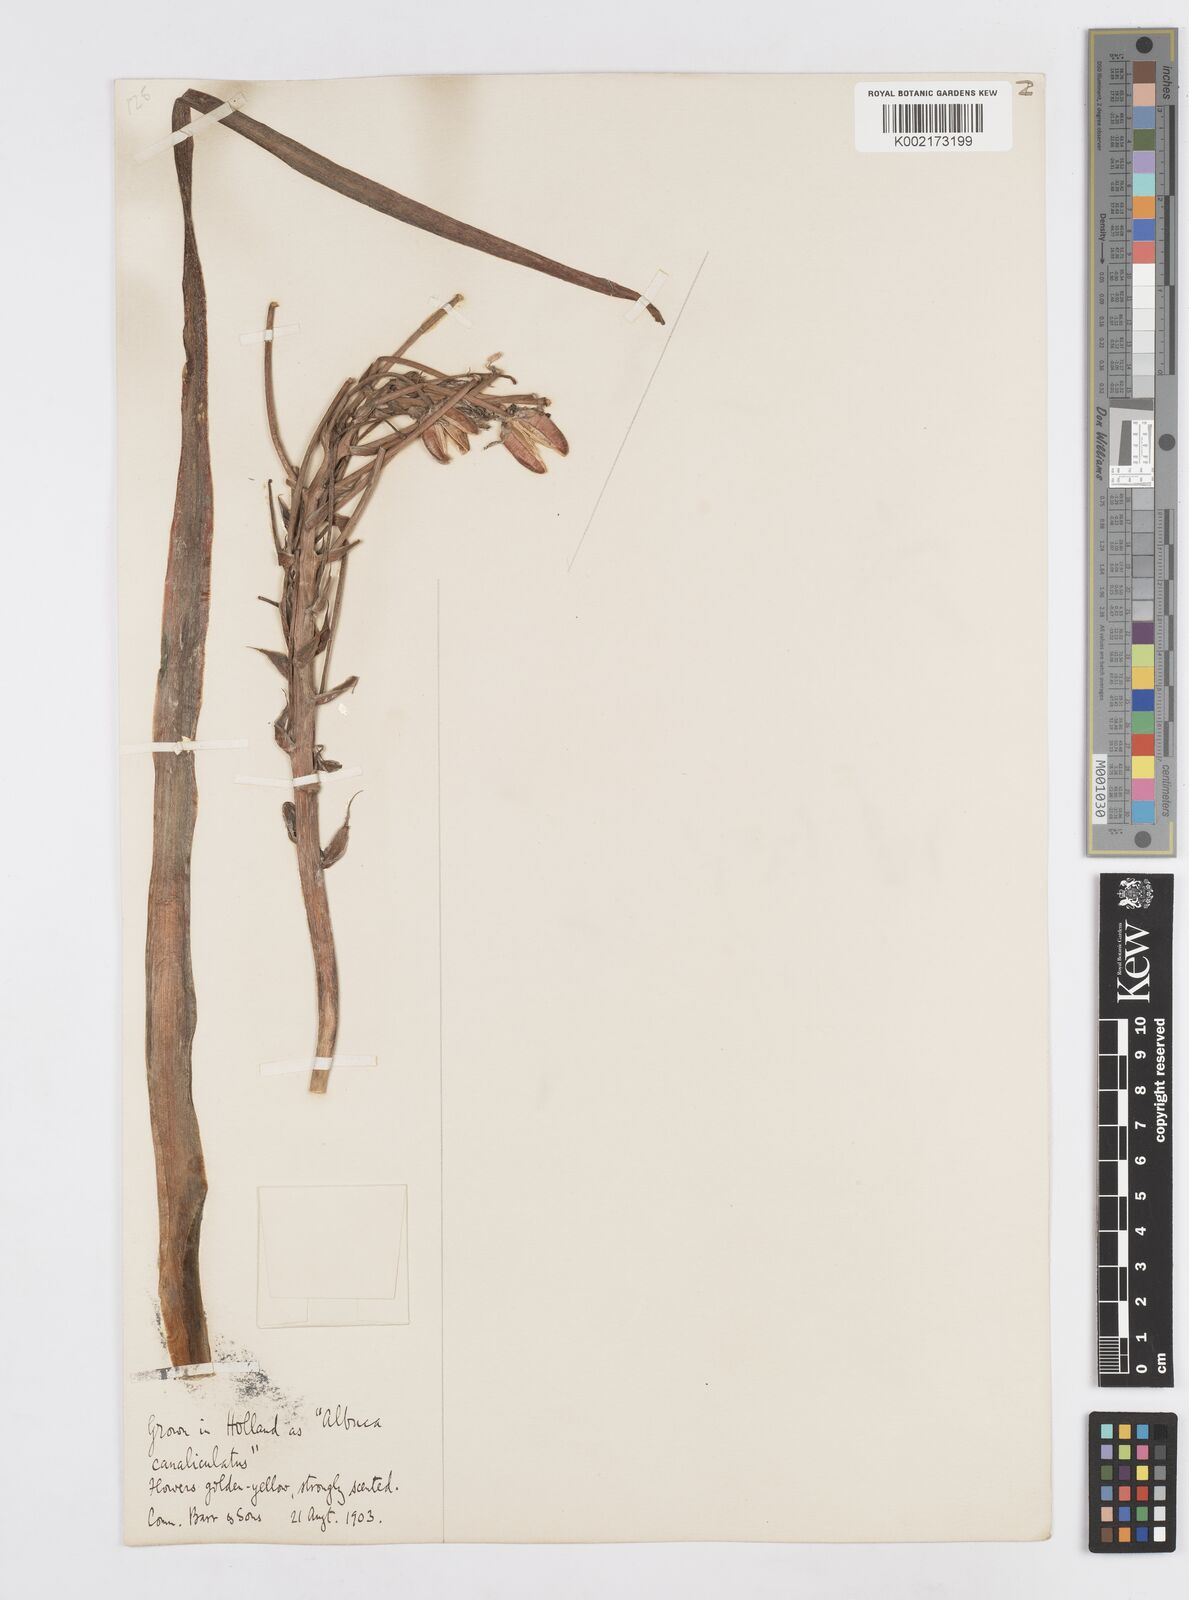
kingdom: Plantae
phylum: Tracheophyta
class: Liliopsida
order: Asparagales
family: Asparagaceae
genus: Albuca
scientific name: Albuca
